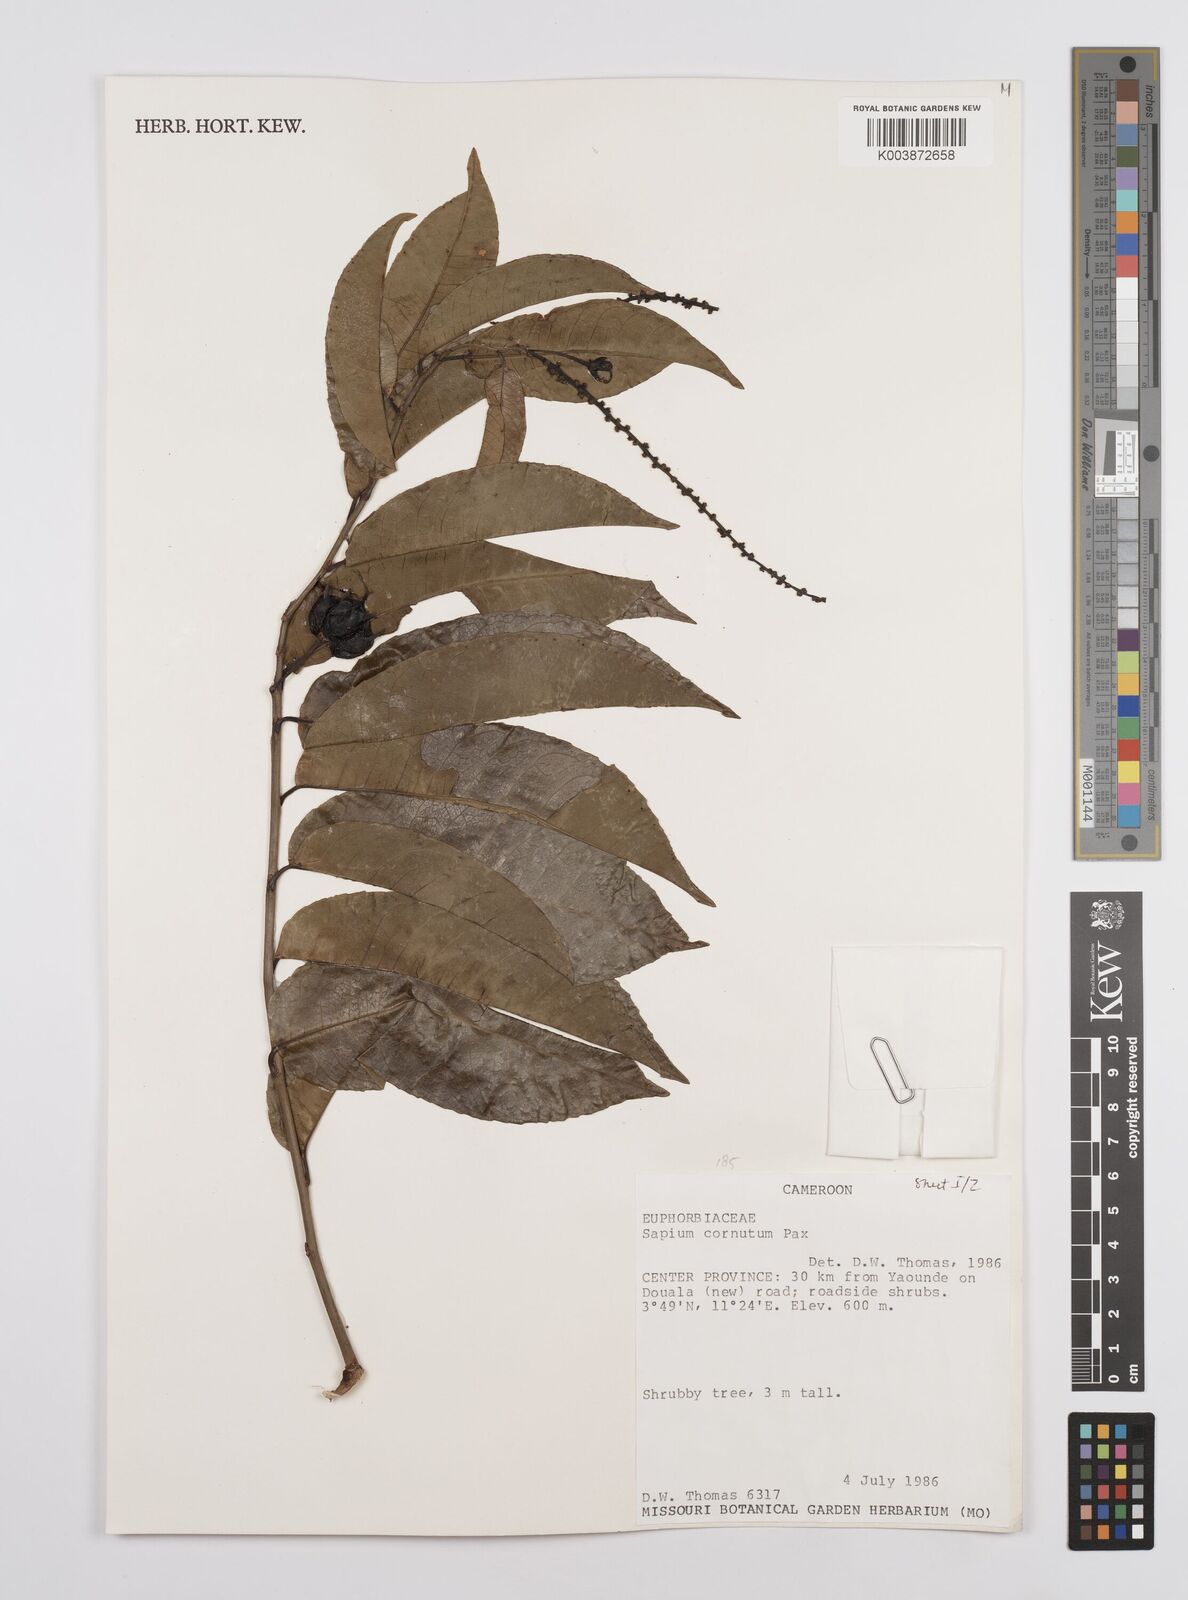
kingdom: Plantae
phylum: Tracheophyta
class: Magnoliopsida
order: Malpighiales
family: Euphorbiaceae
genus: Sclerocroton
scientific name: Sclerocroton cornutus
